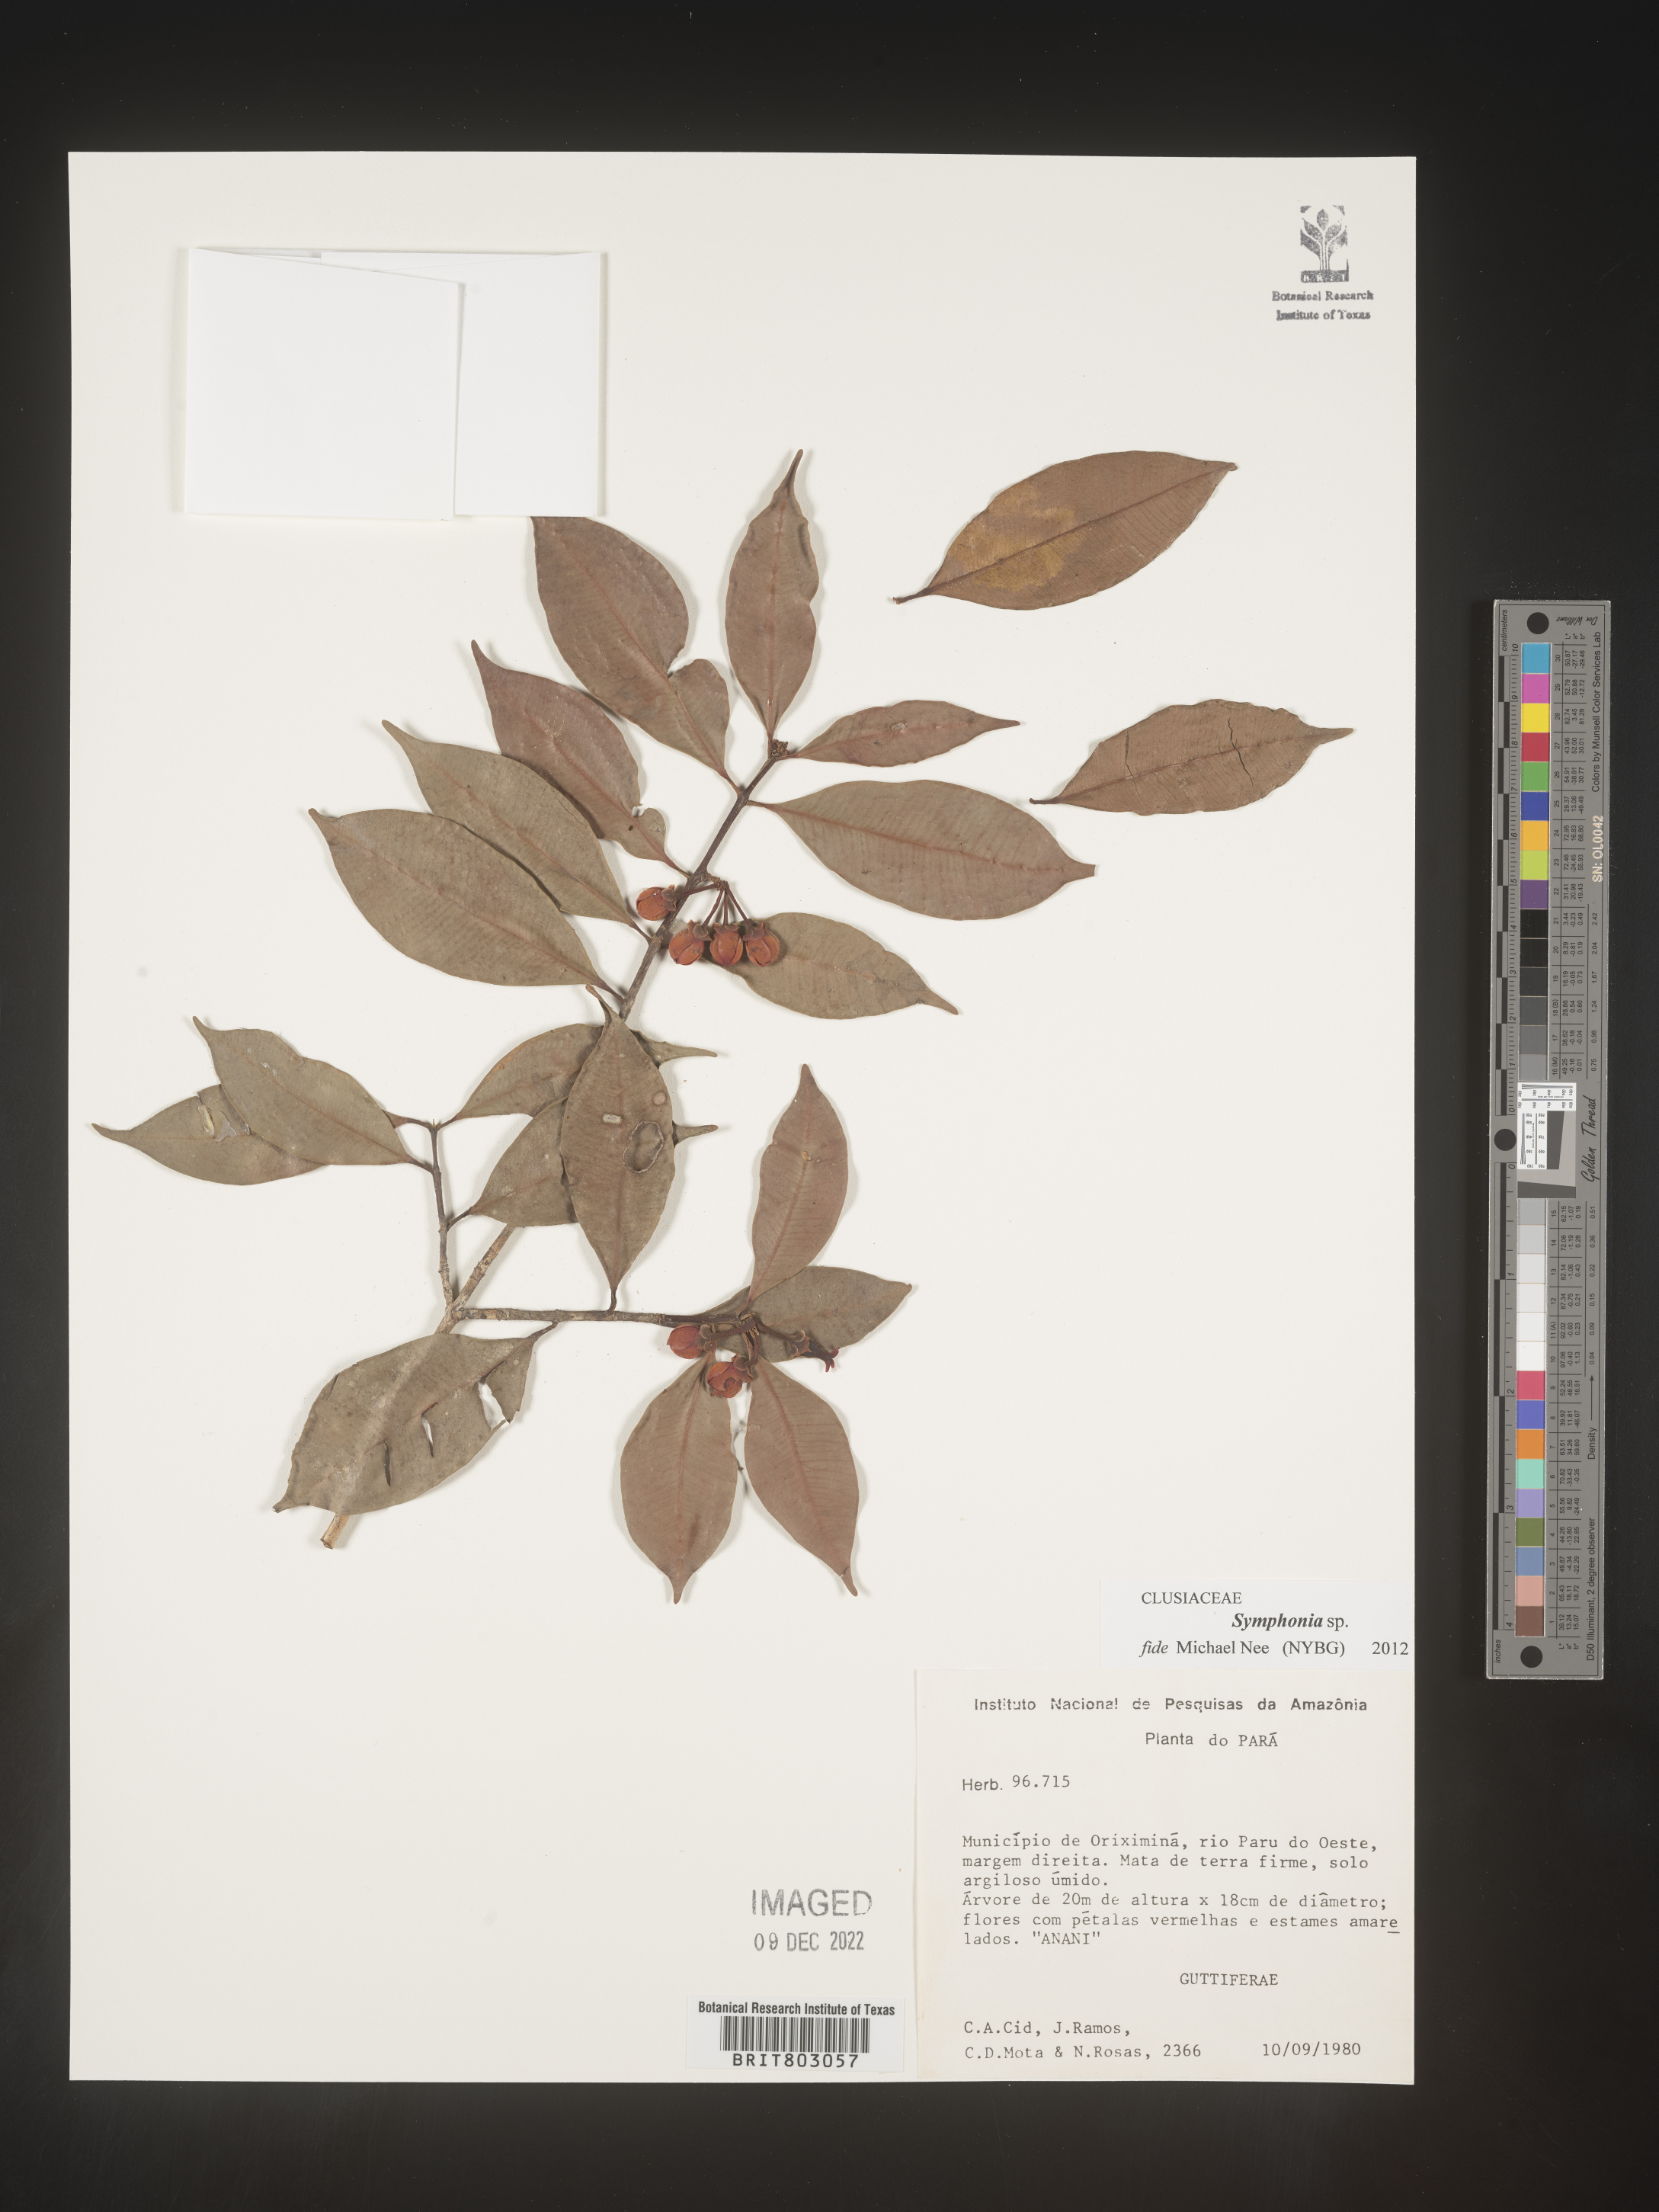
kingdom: Plantae
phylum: Tracheophyta
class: Magnoliopsida
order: Malpighiales
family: Clusiaceae
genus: Symphonia
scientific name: Symphonia
